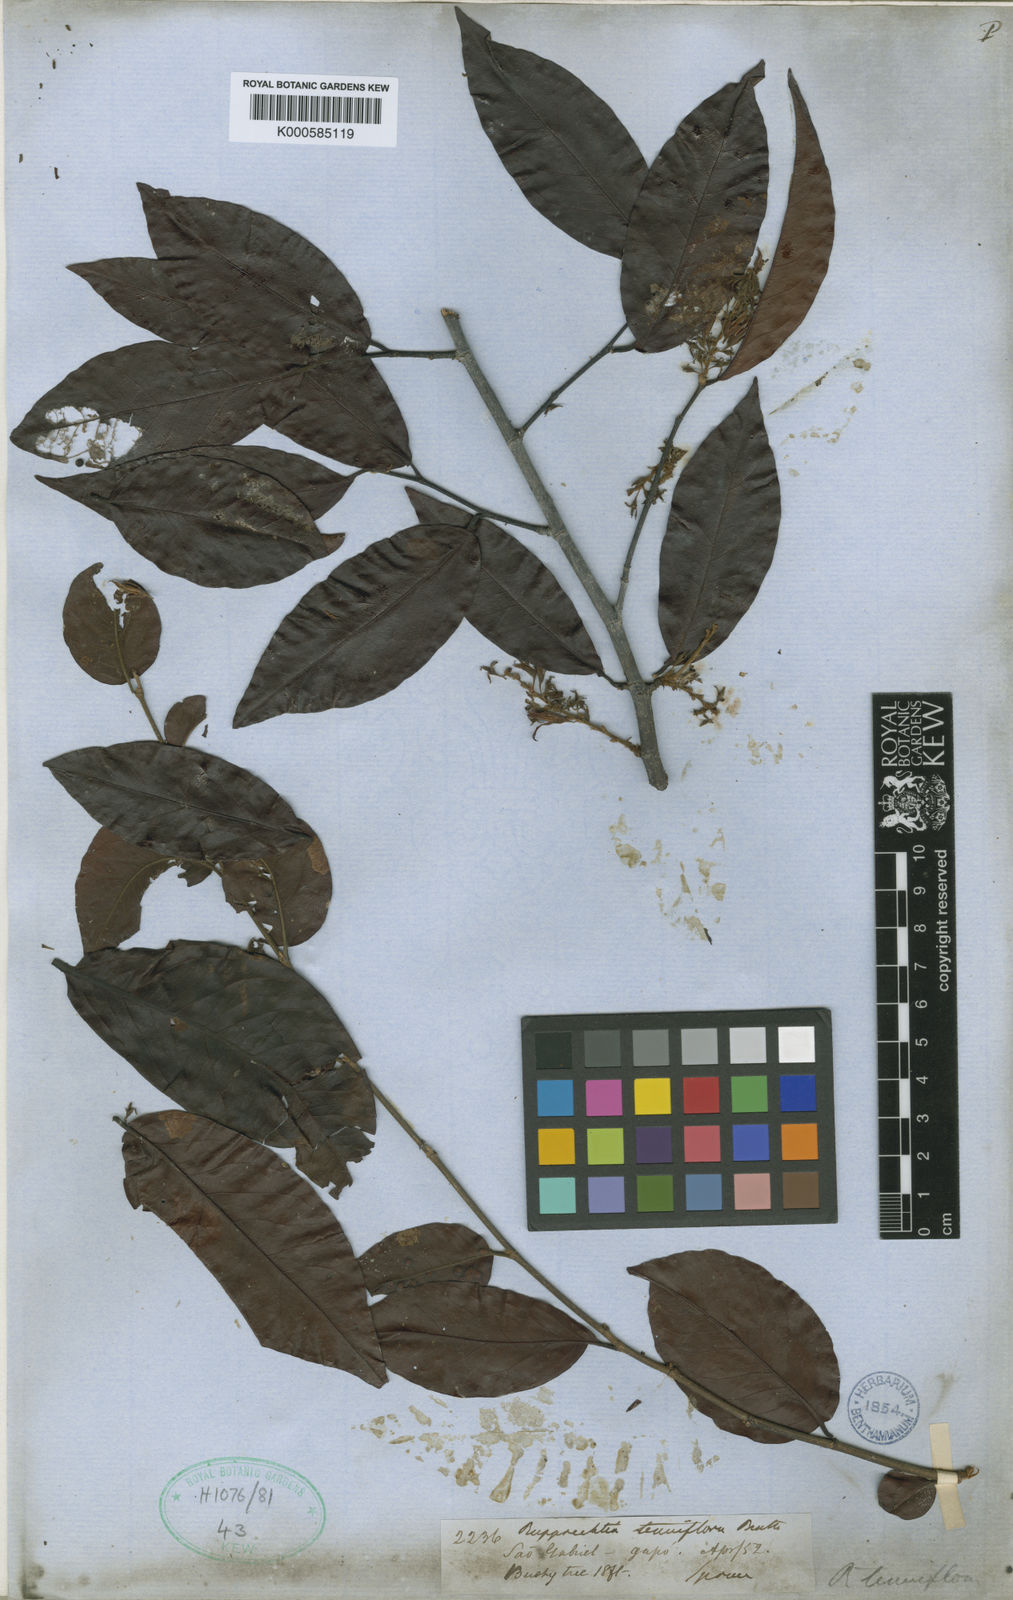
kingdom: Plantae
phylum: Tracheophyta
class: Magnoliopsida
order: Caryophyllales
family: Polygonaceae
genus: Ruprechtia
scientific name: Ruprechtia tenuiflora
